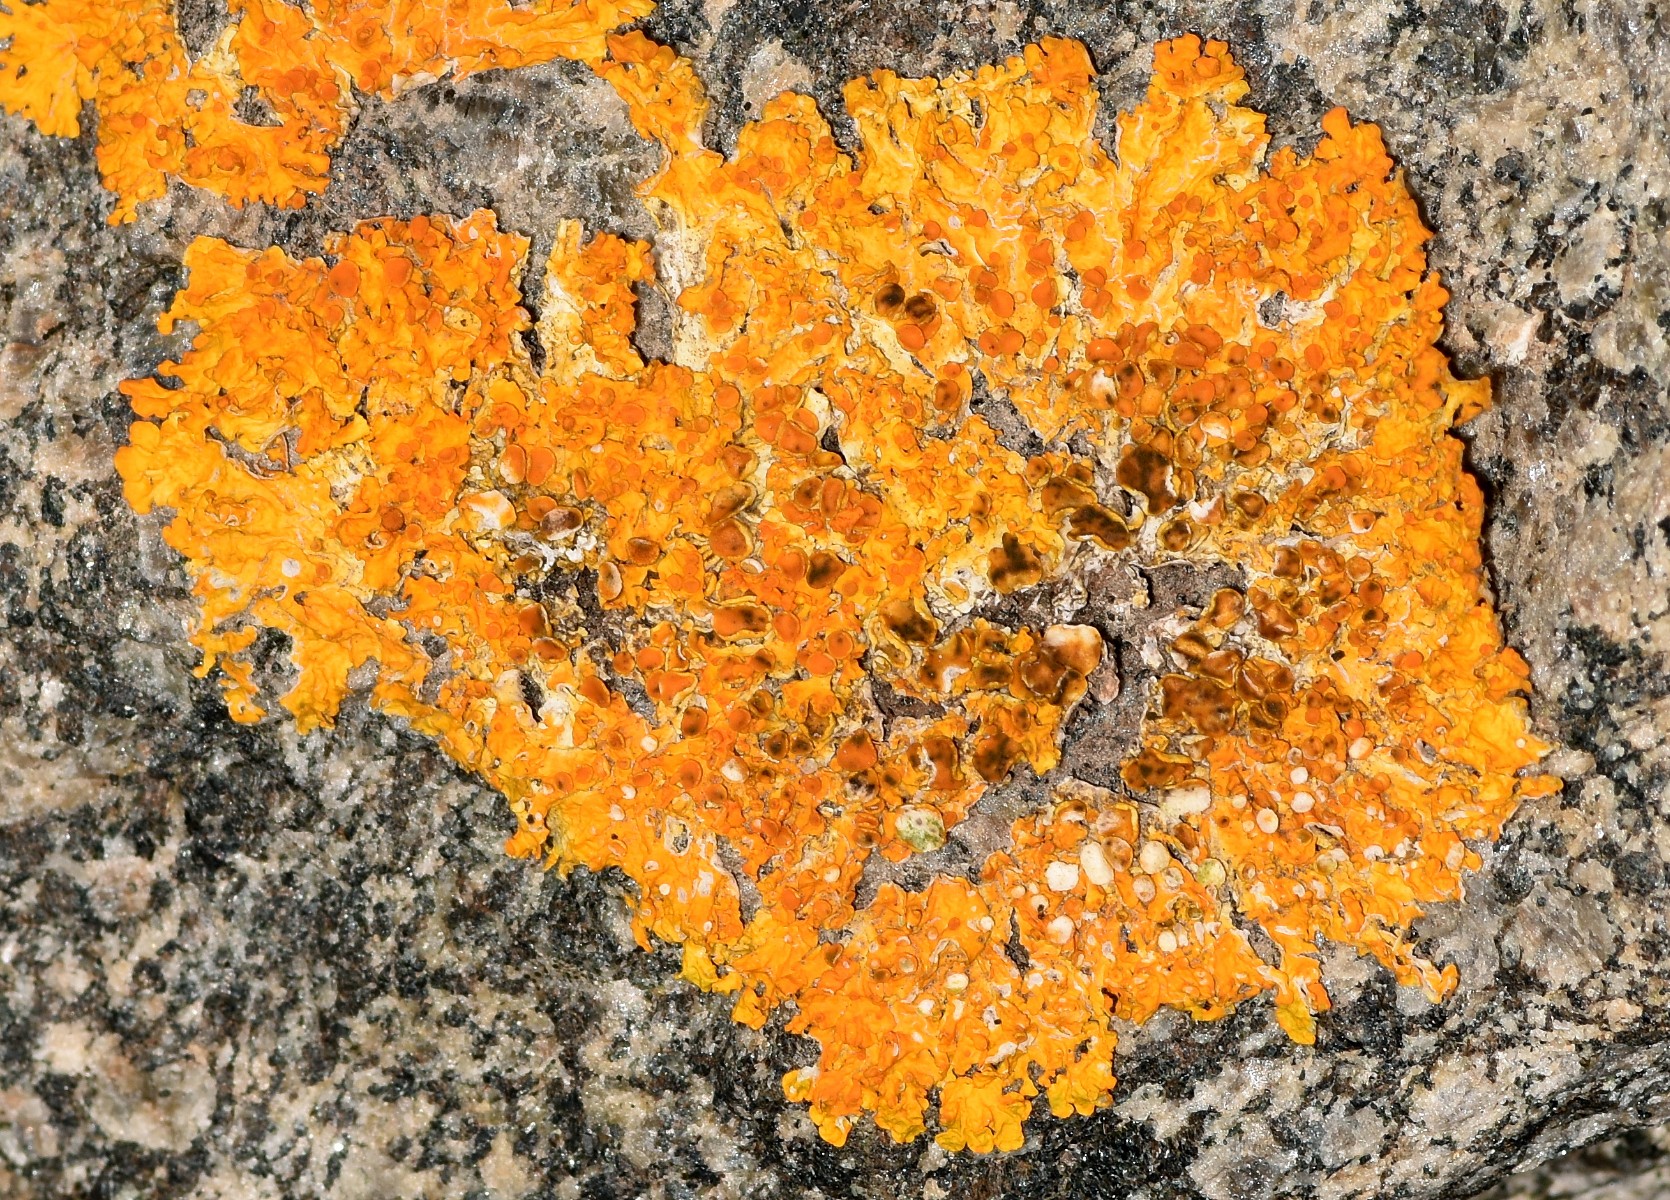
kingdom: Fungi
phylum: Ascomycota
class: Lecanoromycetes
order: Teloschistales
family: Teloschistaceae
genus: Xanthoria
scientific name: Xanthoria parietina
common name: almindelig væggelav
